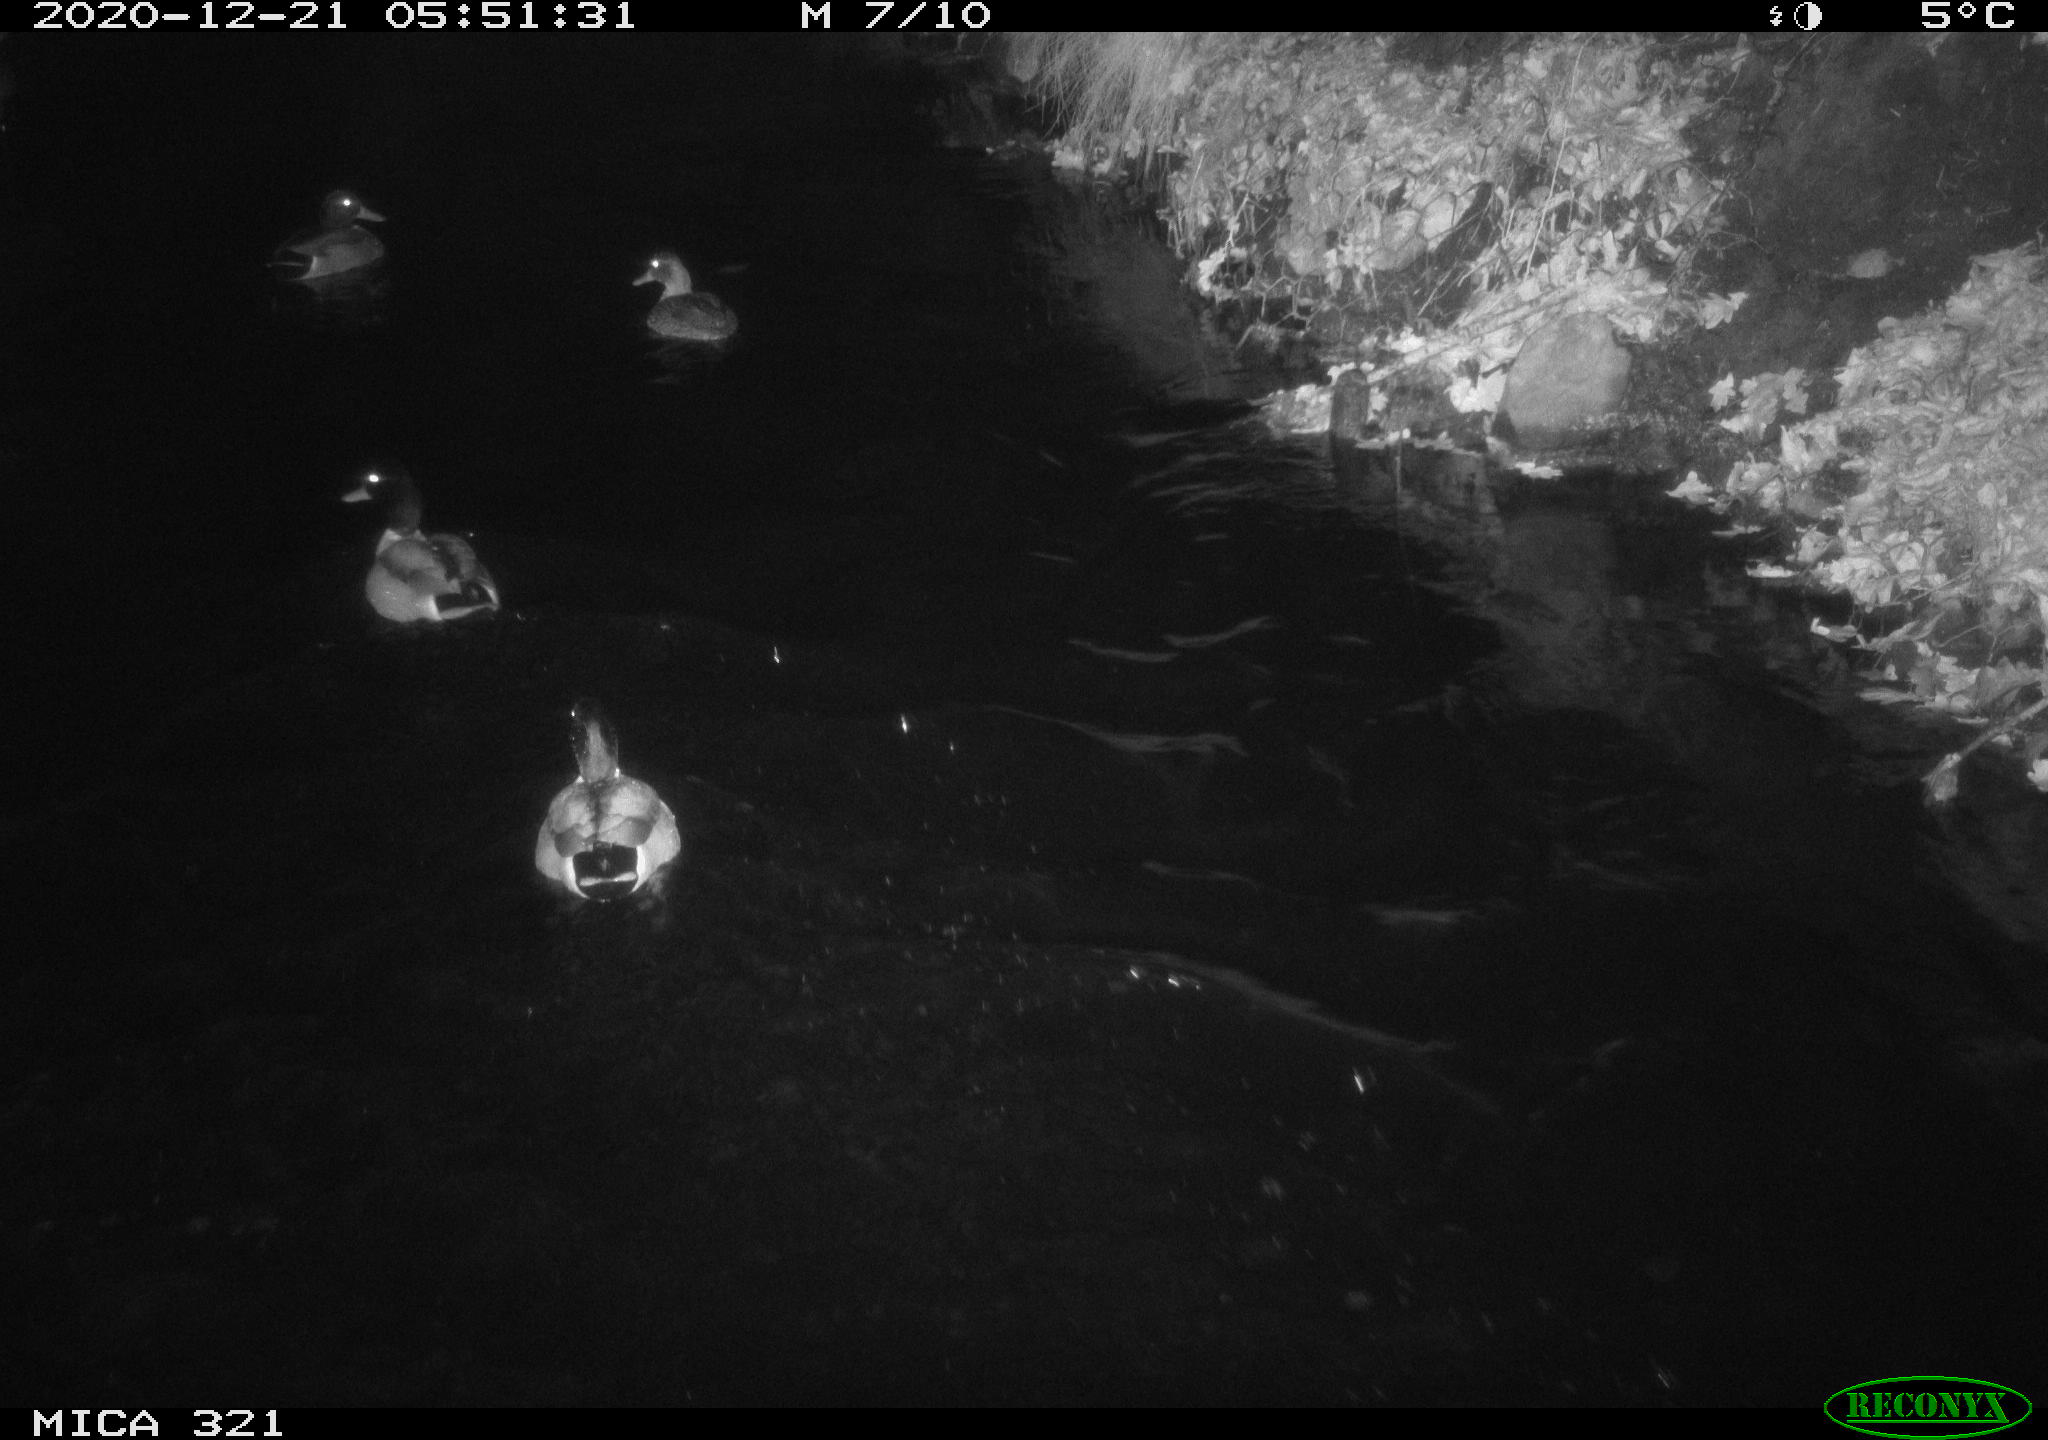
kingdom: Animalia
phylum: Chordata
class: Aves
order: Anseriformes
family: Anatidae
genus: Anas
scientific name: Anas platyrhynchos
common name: Mallard
